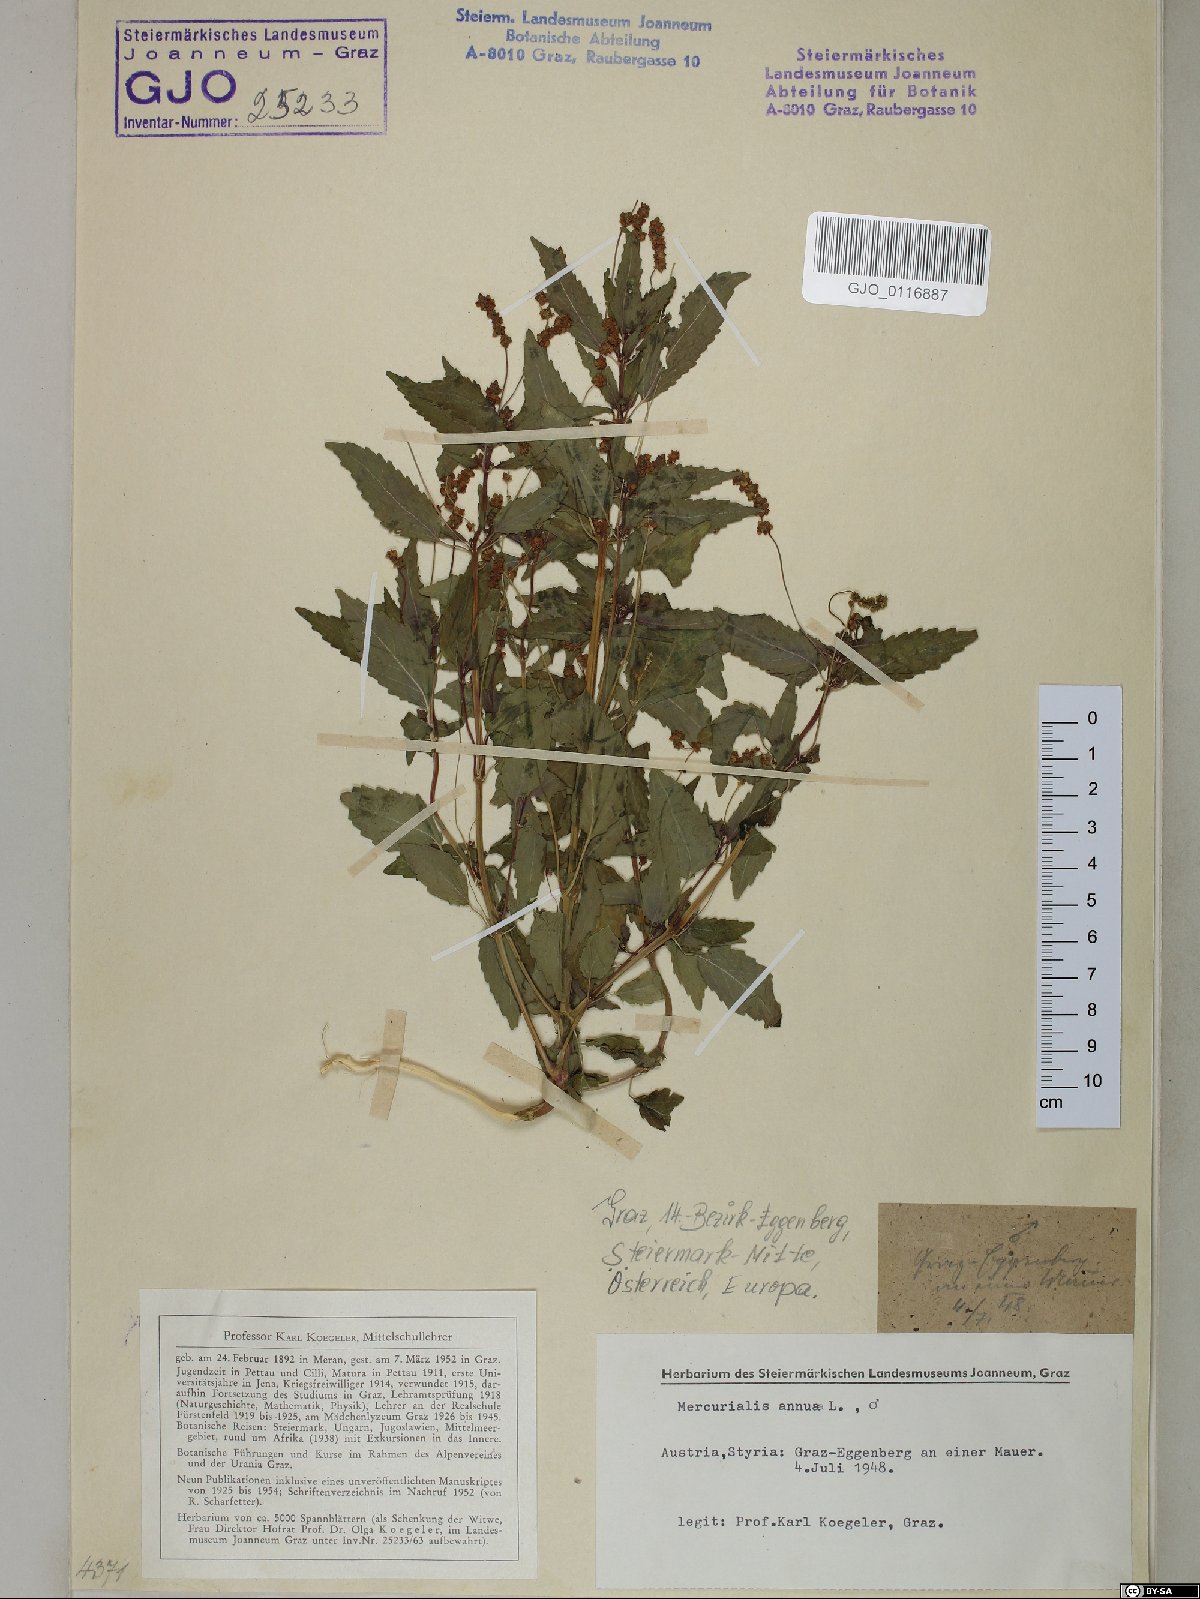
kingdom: Plantae
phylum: Tracheophyta
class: Magnoliopsida
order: Malpighiales
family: Euphorbiaceae
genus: Mercurialis
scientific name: Mercurialis annua
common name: Annual mercury
